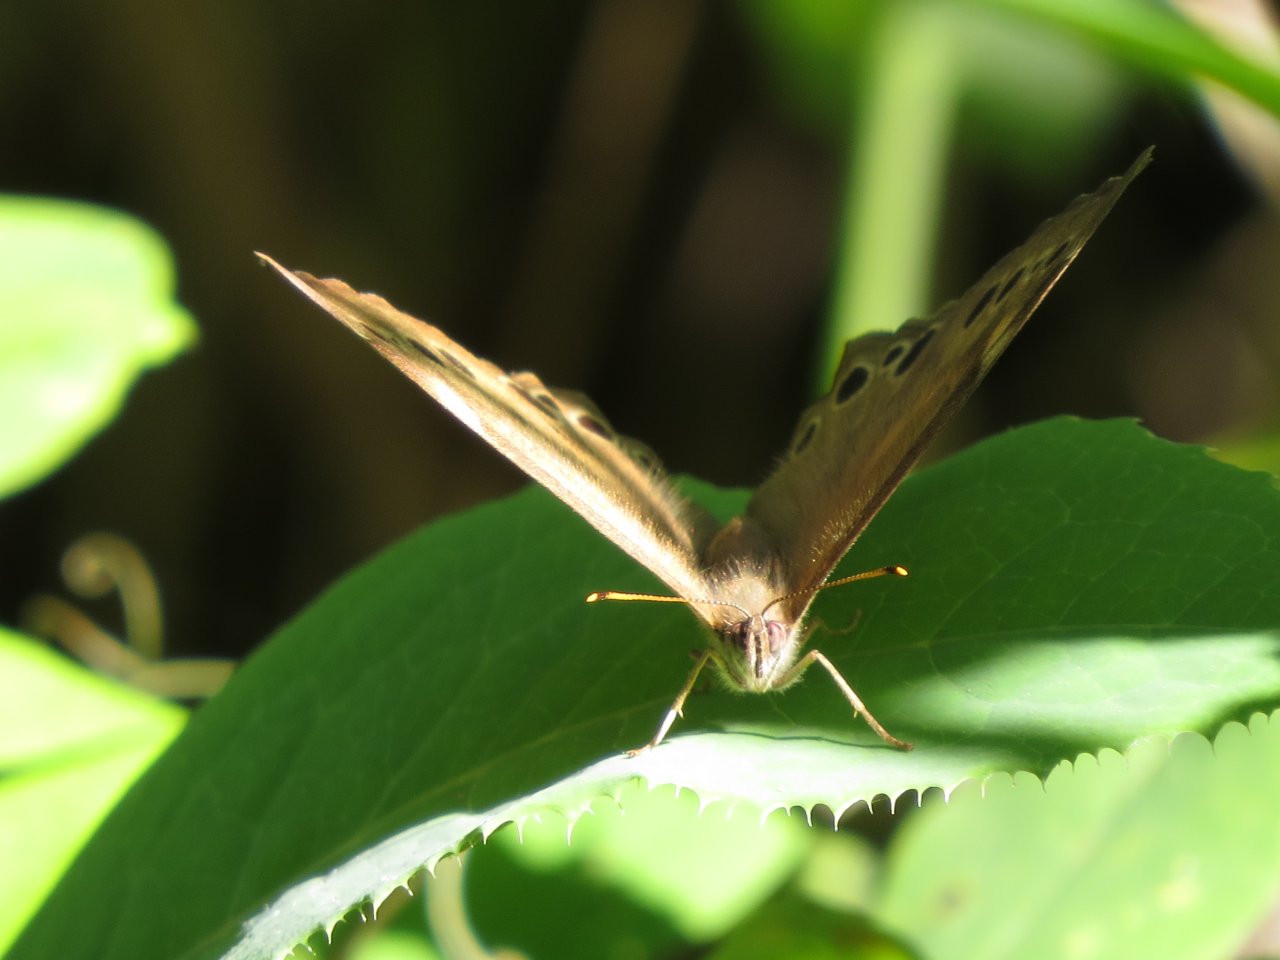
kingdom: Animalia
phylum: Arthropoda
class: Insecta
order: Lepidoptera
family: Nymphalidae
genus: Lethe
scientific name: Lethe anthedon
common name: Northern Pearly-Eye
